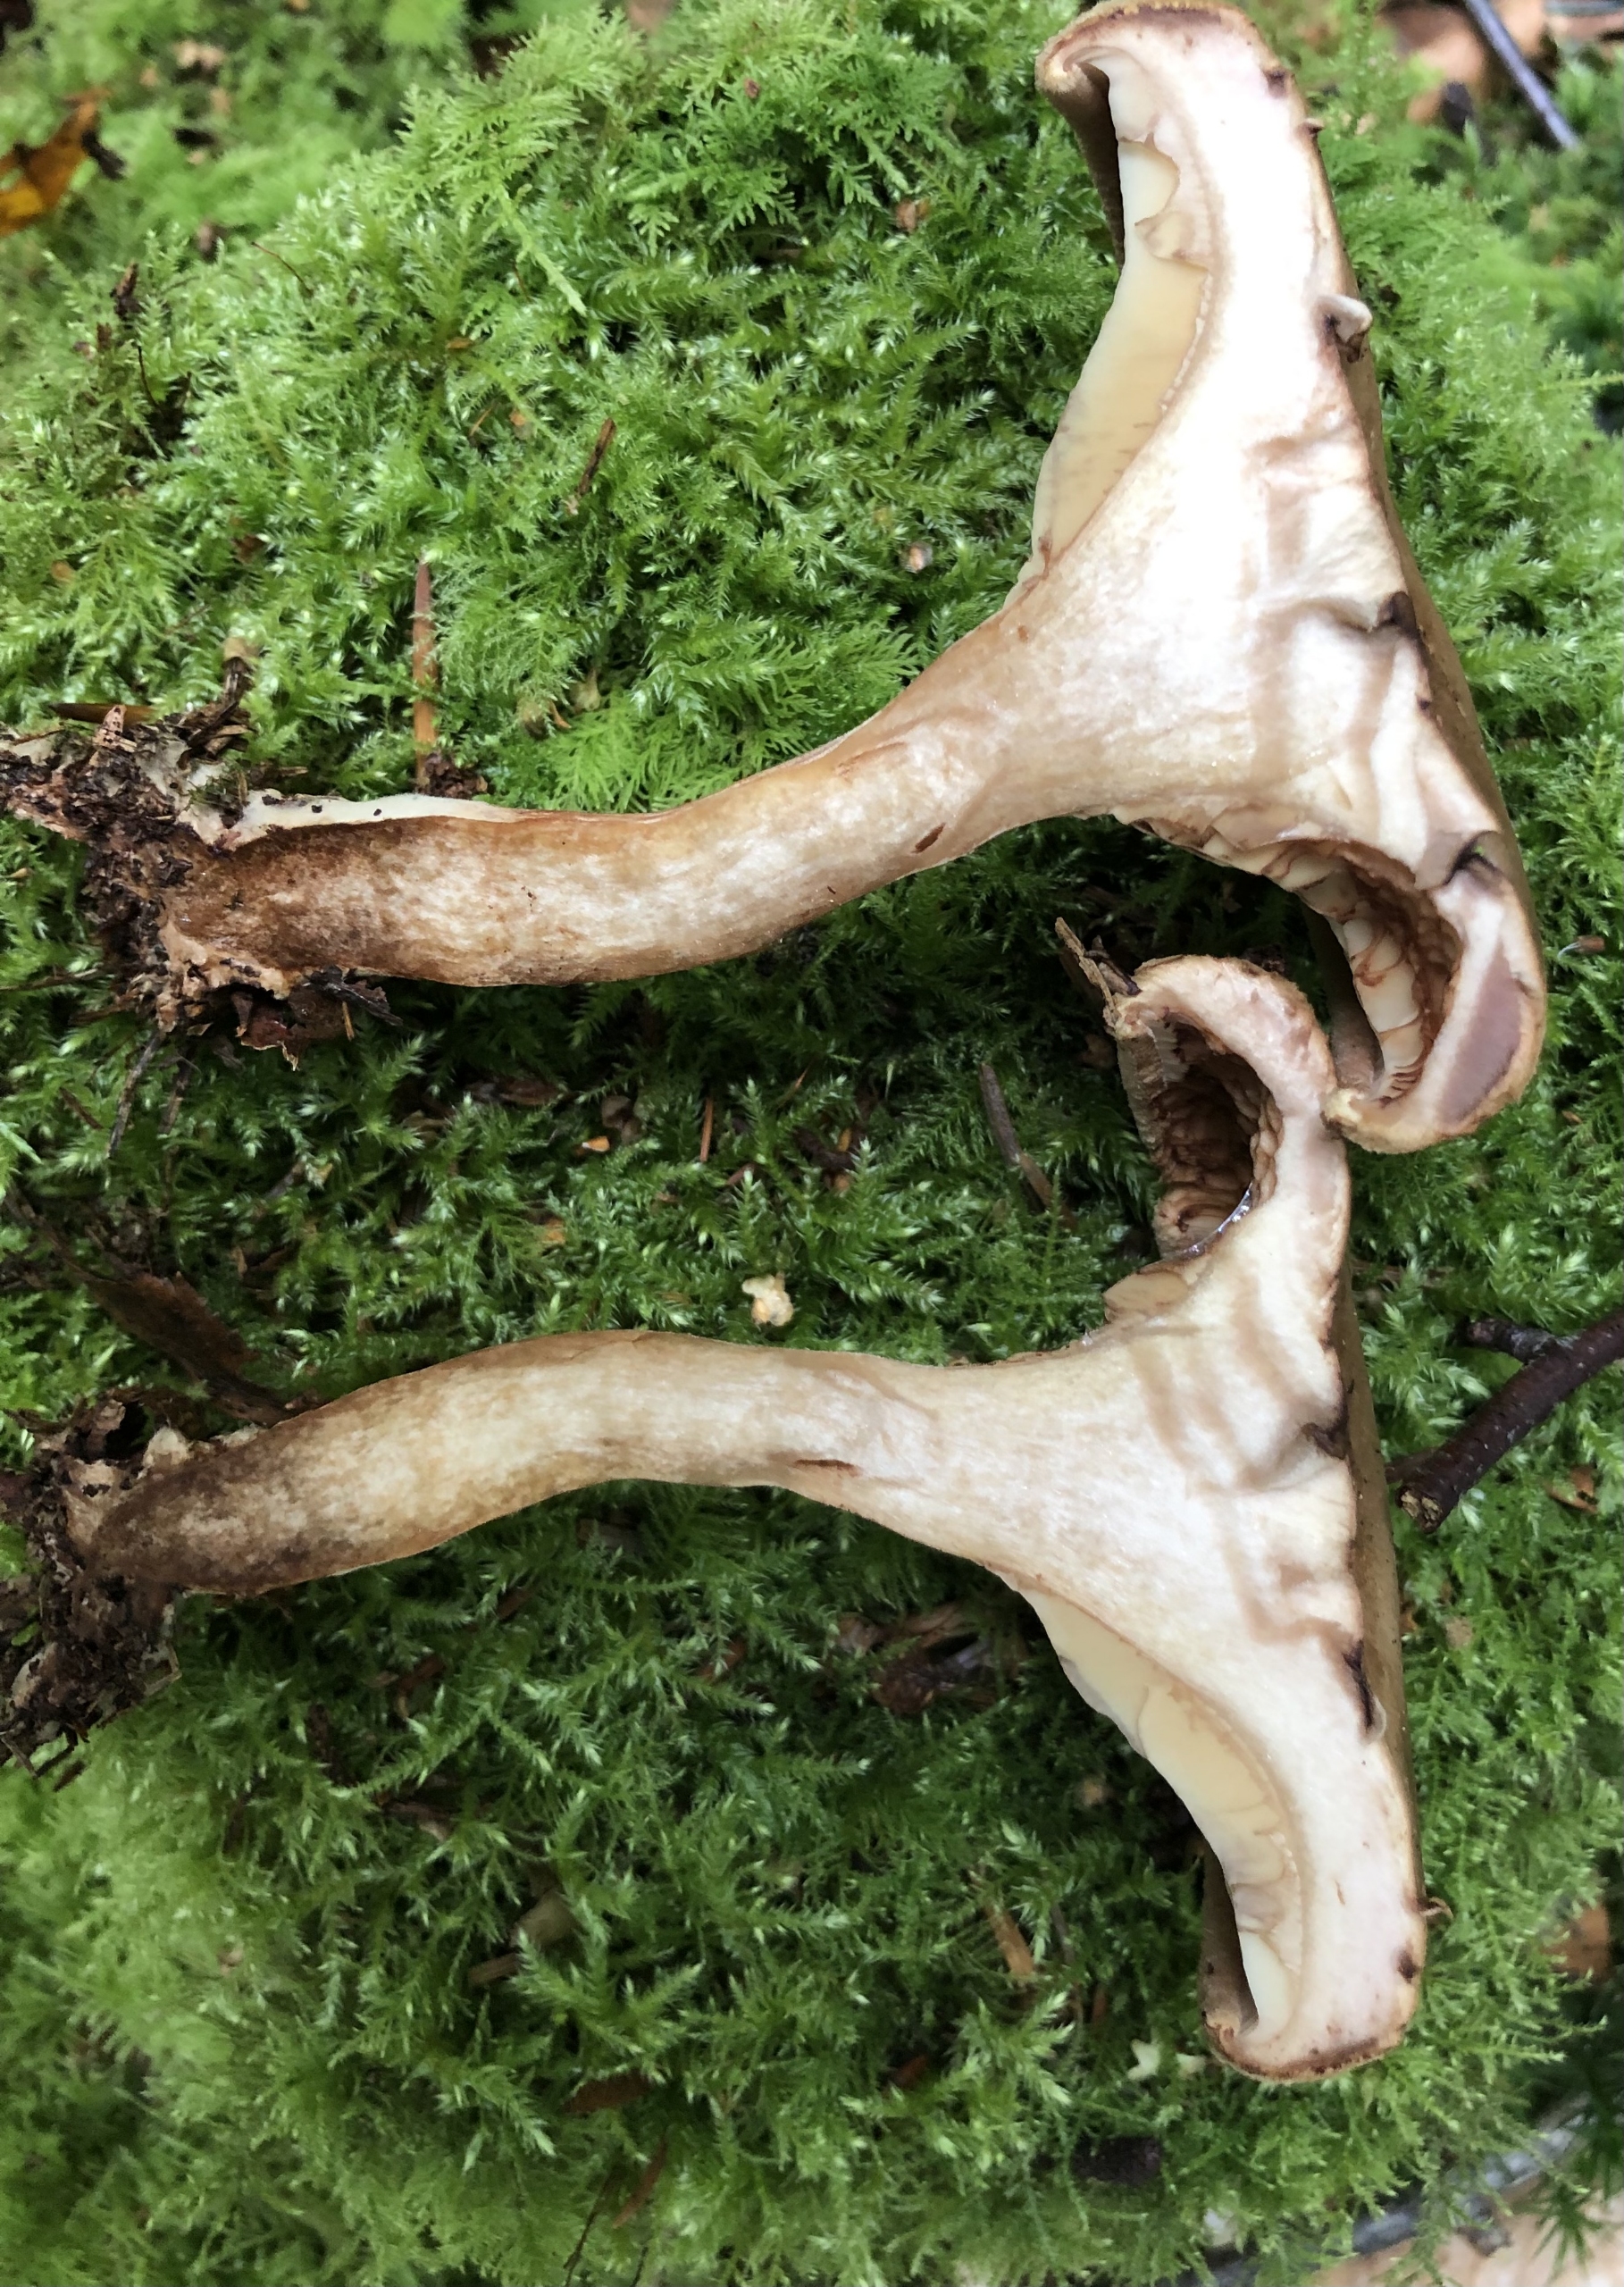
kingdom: Fungi
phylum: Basidiomycota
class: Agaricomycetes
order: Boletales
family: Paxillaceae
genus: Paxillus
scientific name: Paxillus
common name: Netbladhat
